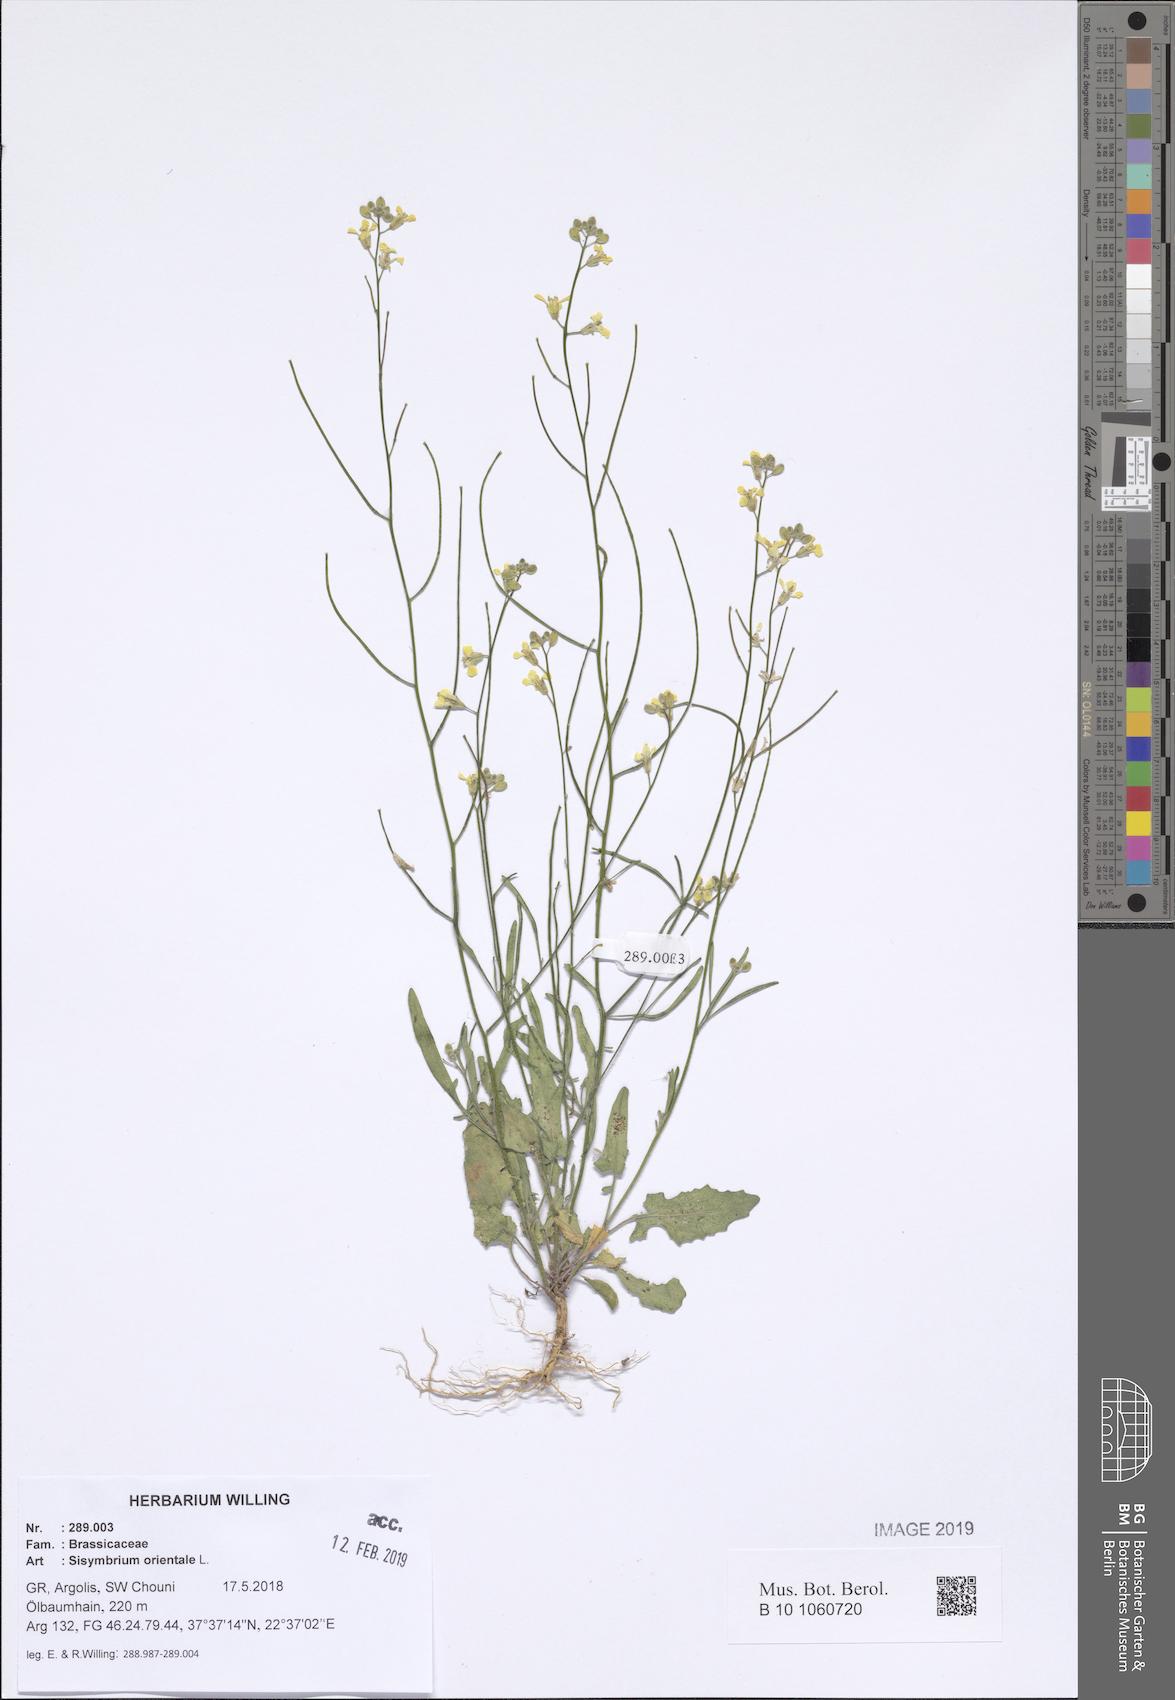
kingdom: Plantae
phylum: Tracheophyta
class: Magnoliopsida
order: Brassicales
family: Brassicaceae
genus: Sisymbrium
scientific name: Sisymbrium orientale
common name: Eastern rocket
